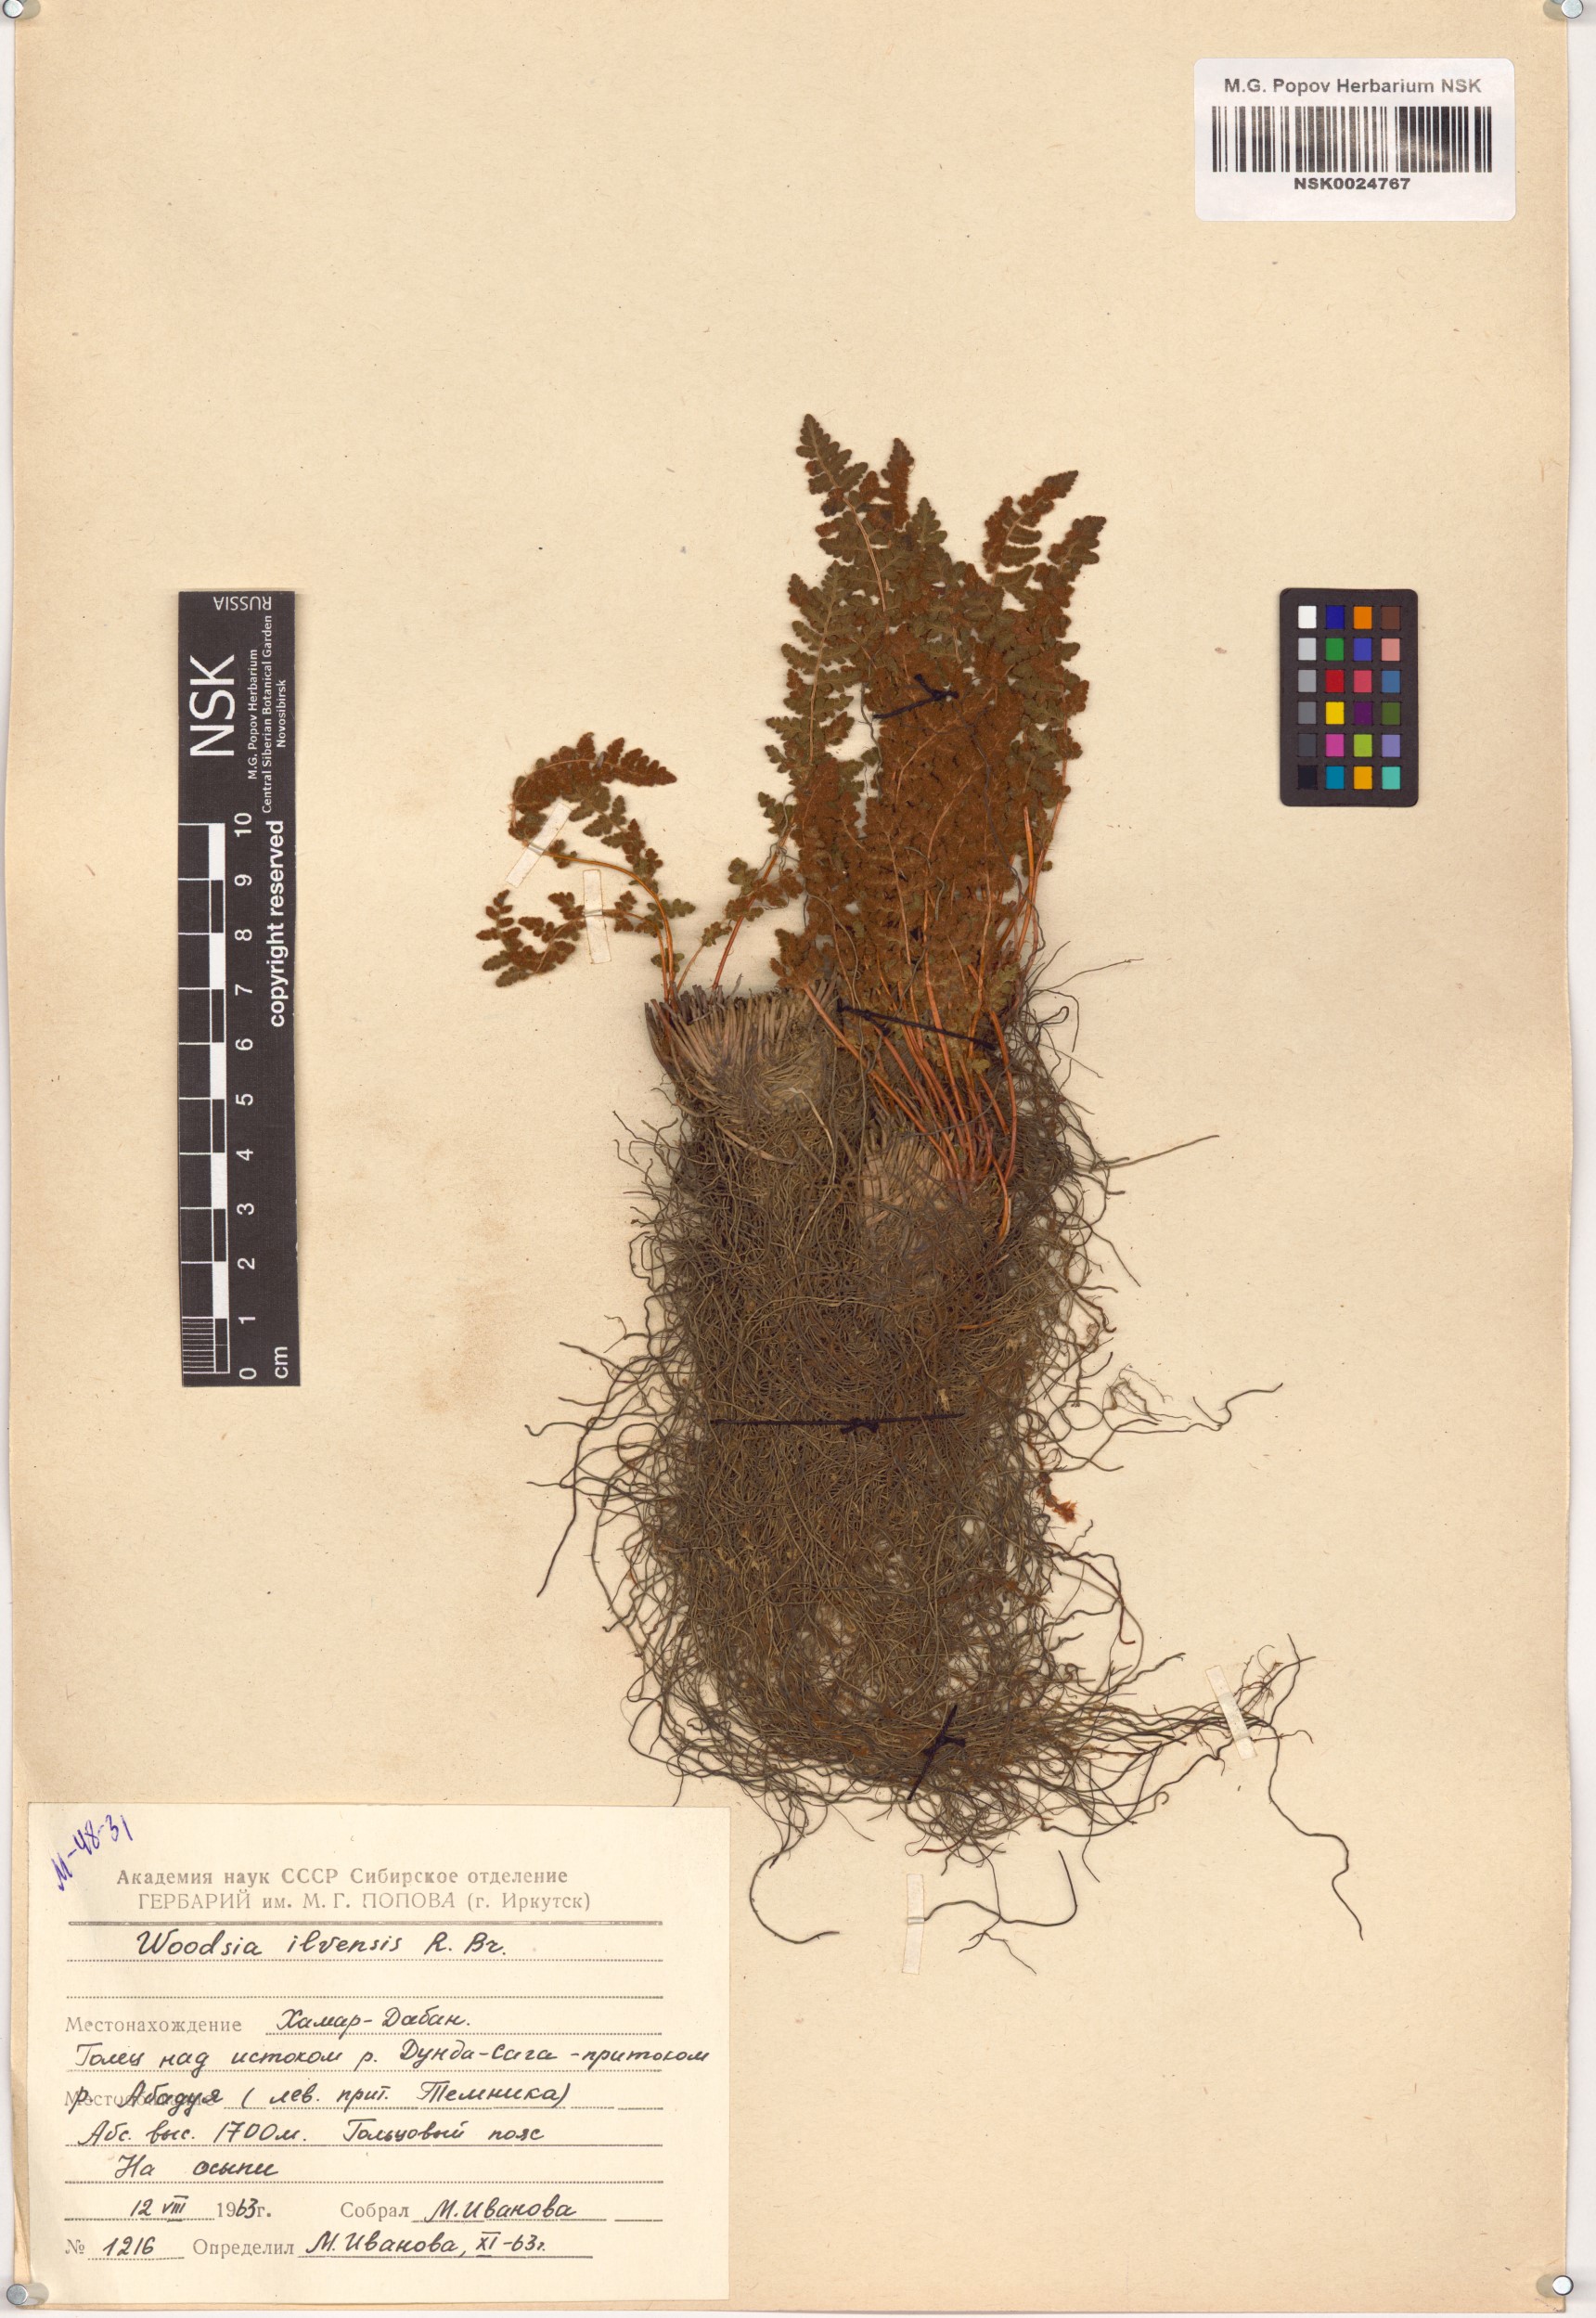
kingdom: Plantae
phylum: Tracheophyta
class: Polypodiopsida
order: Polypodiales
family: Woodsiaceae
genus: Woodsia
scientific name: Woodsia ilvensis
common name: Fragrant woodsia
